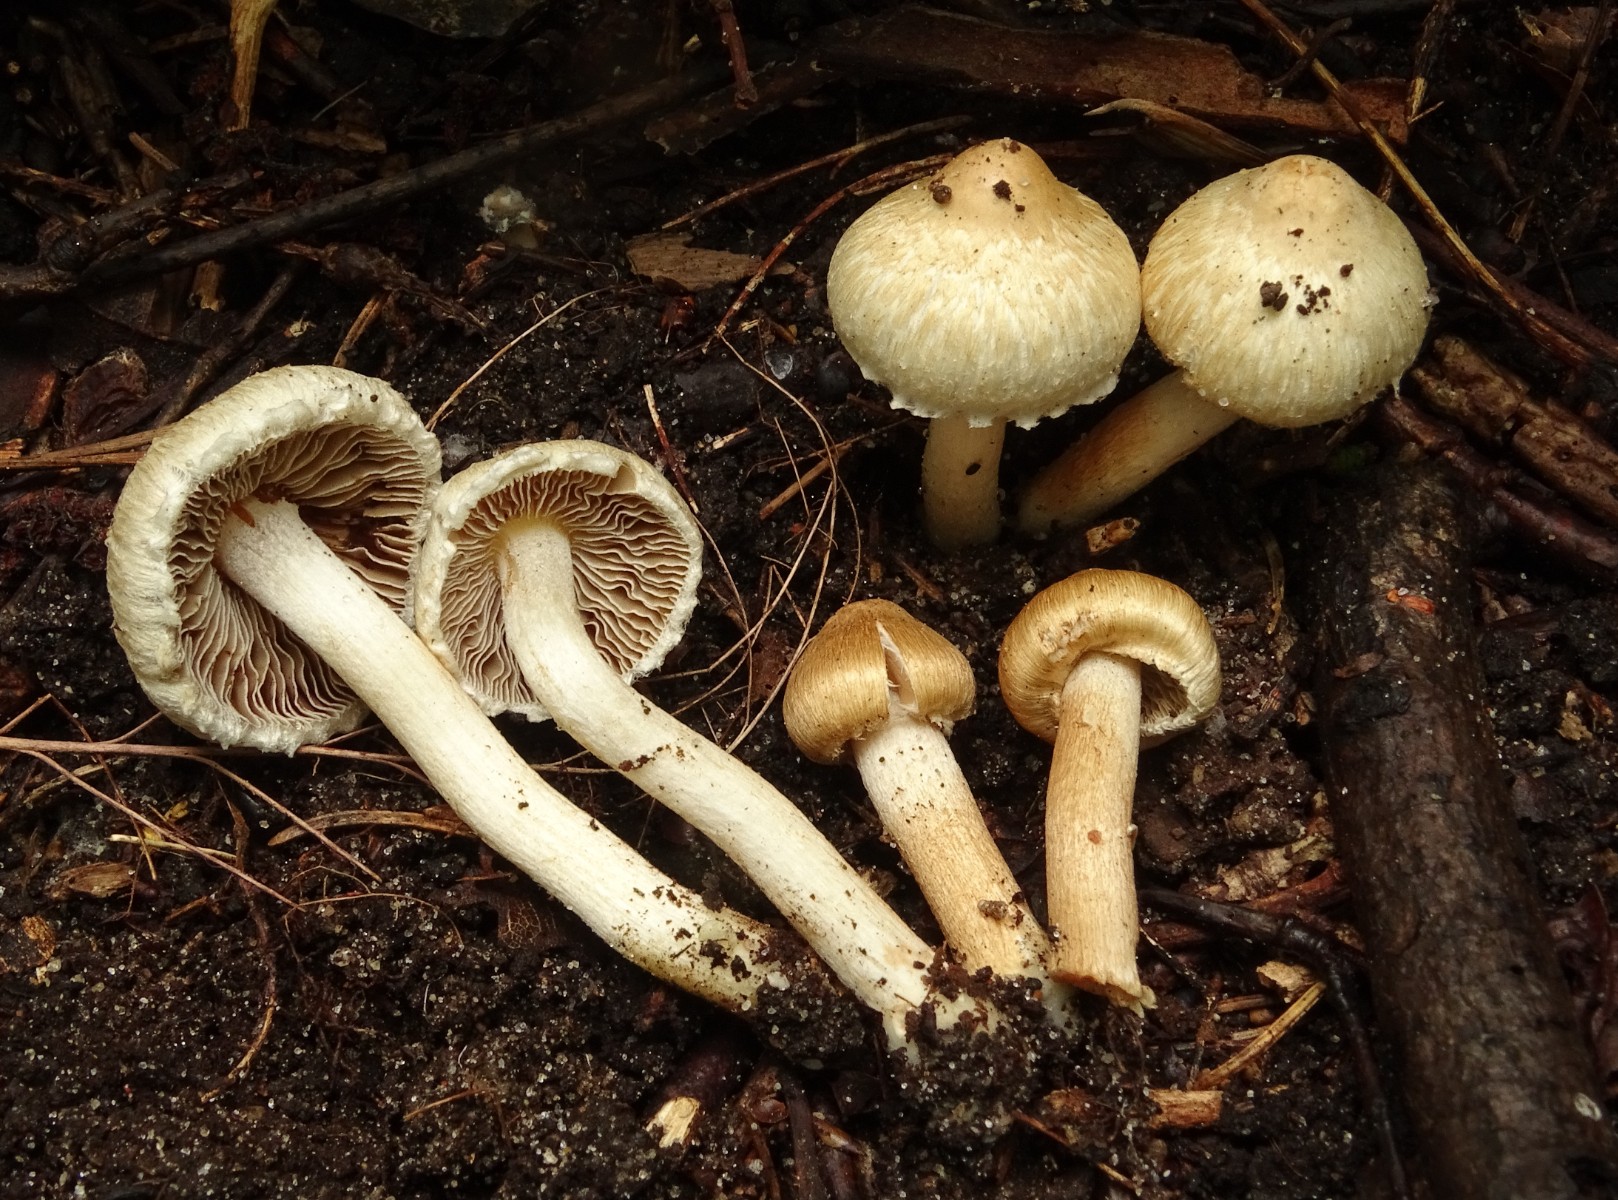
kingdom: Fungi
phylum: Basidiomycota
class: Agaricomycetes
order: Agaricales
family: Inocybaceae
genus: Inocybe
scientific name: Inocybe appendiculata
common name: tandet trævlhat
